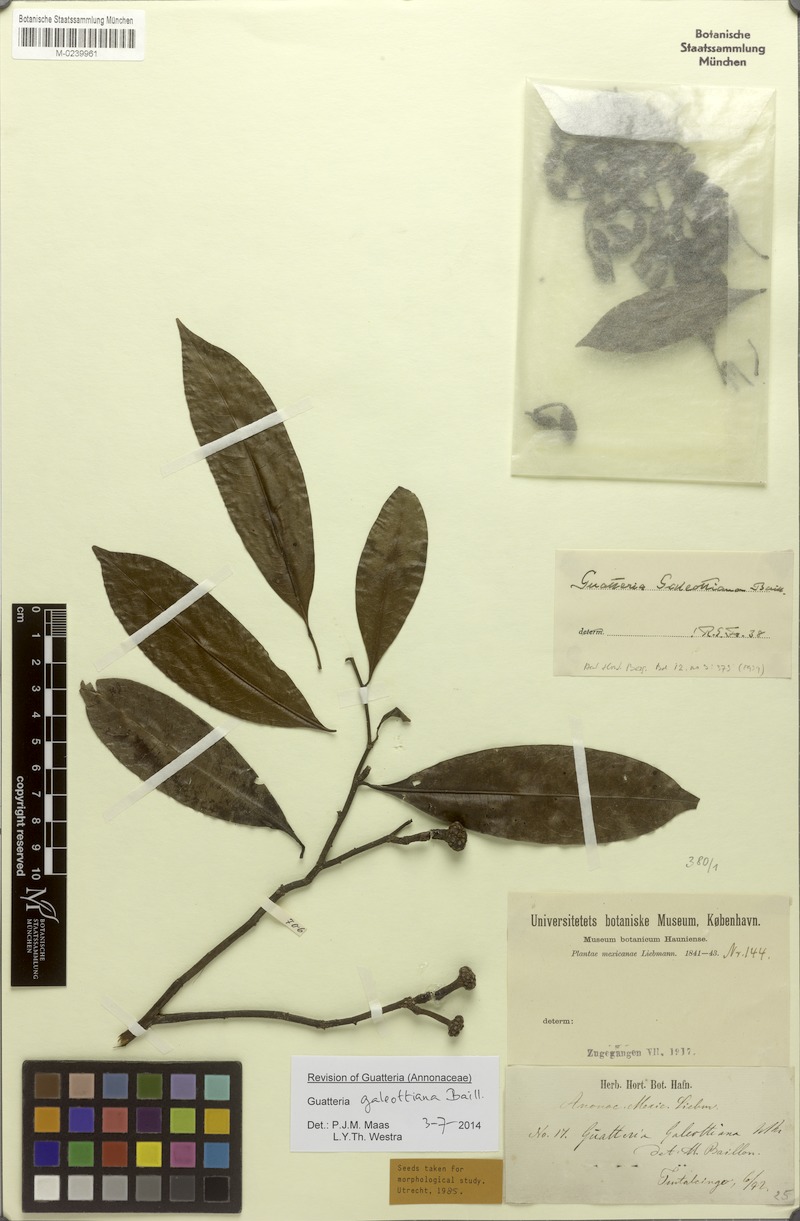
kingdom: Plantae
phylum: Tracheophyta
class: Magnoliopsida
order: Magnoliales
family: Annonaceae
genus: Guatteria
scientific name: Guatteria galeottiana
